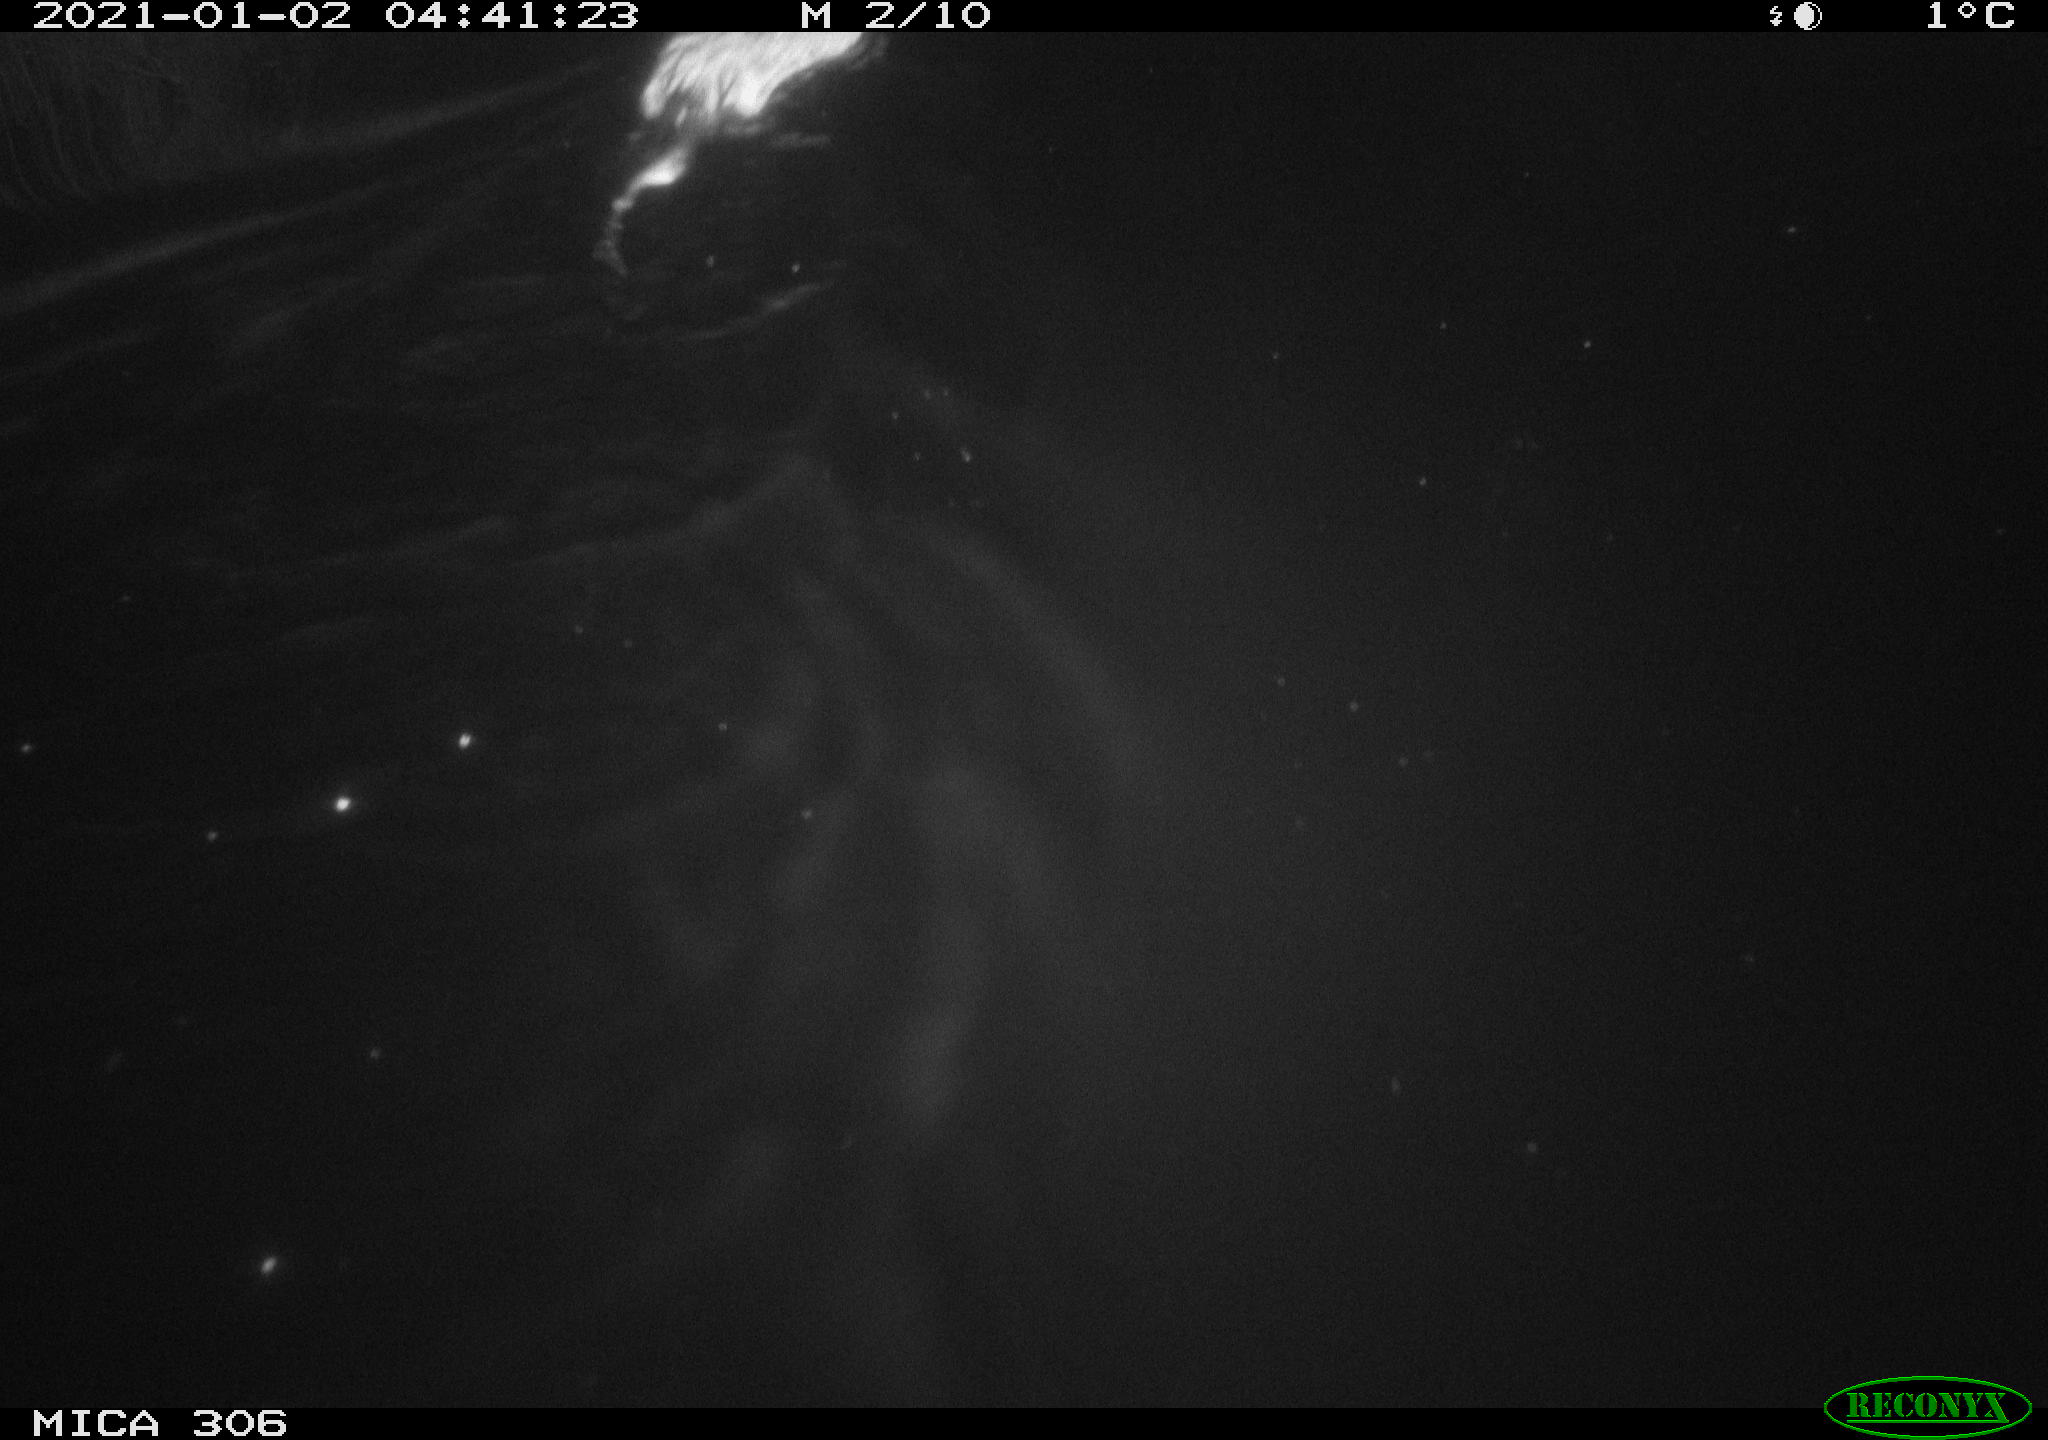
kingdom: Animalia
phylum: Chordata
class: Mammalia
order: Rodentia
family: Cricetidae
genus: Ondatra
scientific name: Ondatra zibethicus
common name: Muskrat
